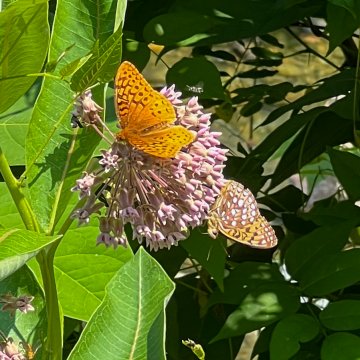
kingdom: Animalia
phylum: Arthropoda
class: Insecta
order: Lepidoptera
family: Nymphalidae
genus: Speyeria
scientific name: Speyeria cybele
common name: Great Spangled Fritillary
